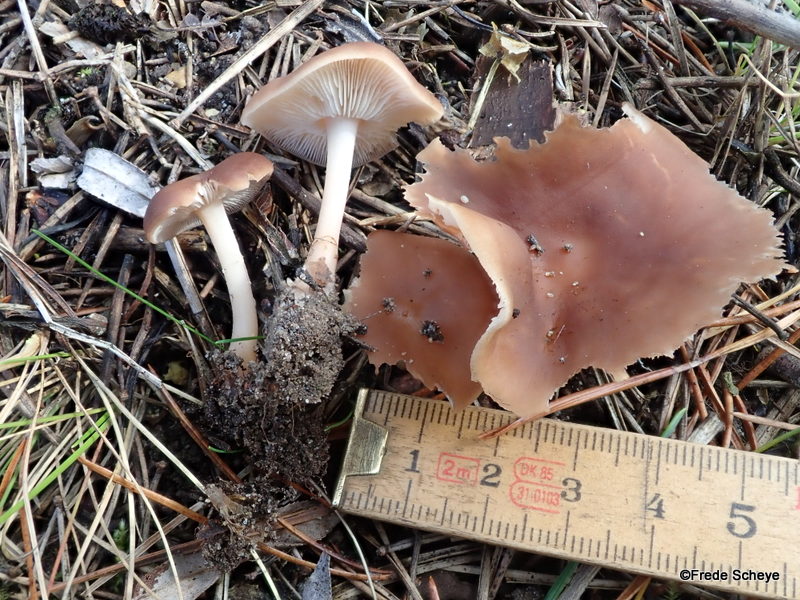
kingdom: Fungi
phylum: Basidiomycota
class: Agaricomycetes
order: Agaricales
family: Omphalotaceae
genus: Gymnopus
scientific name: Gymnopus
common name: fladhat
